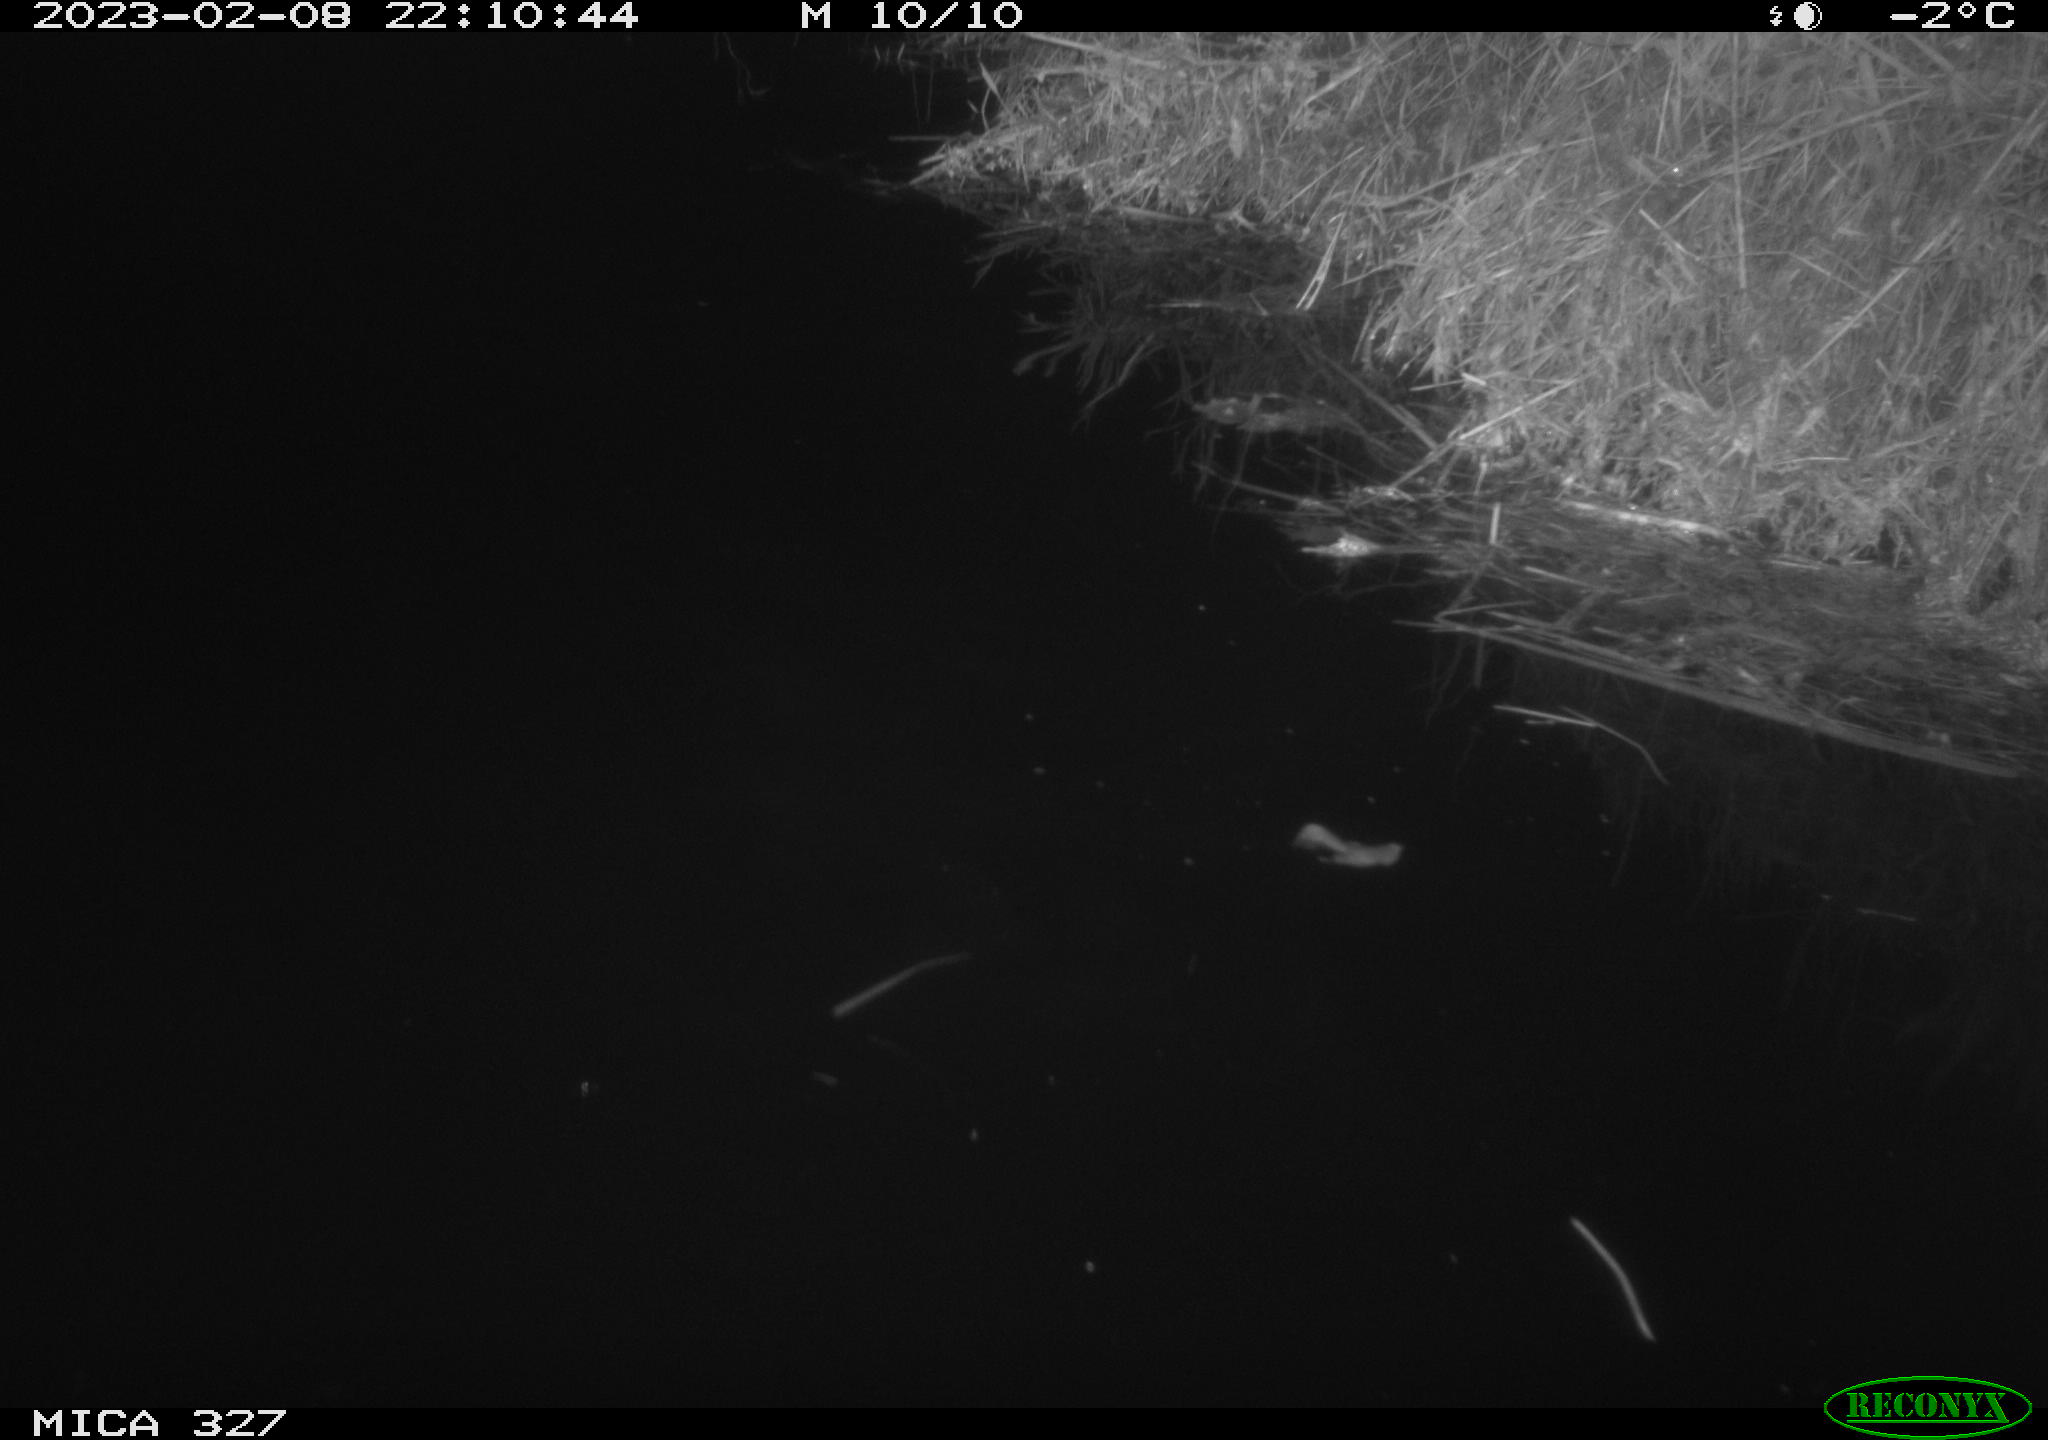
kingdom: Animalia
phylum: Chordata
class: Mammalia
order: Rodentia
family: Cricetidae
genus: Ondatra
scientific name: Ondatra zibethicus
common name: Muskrat
